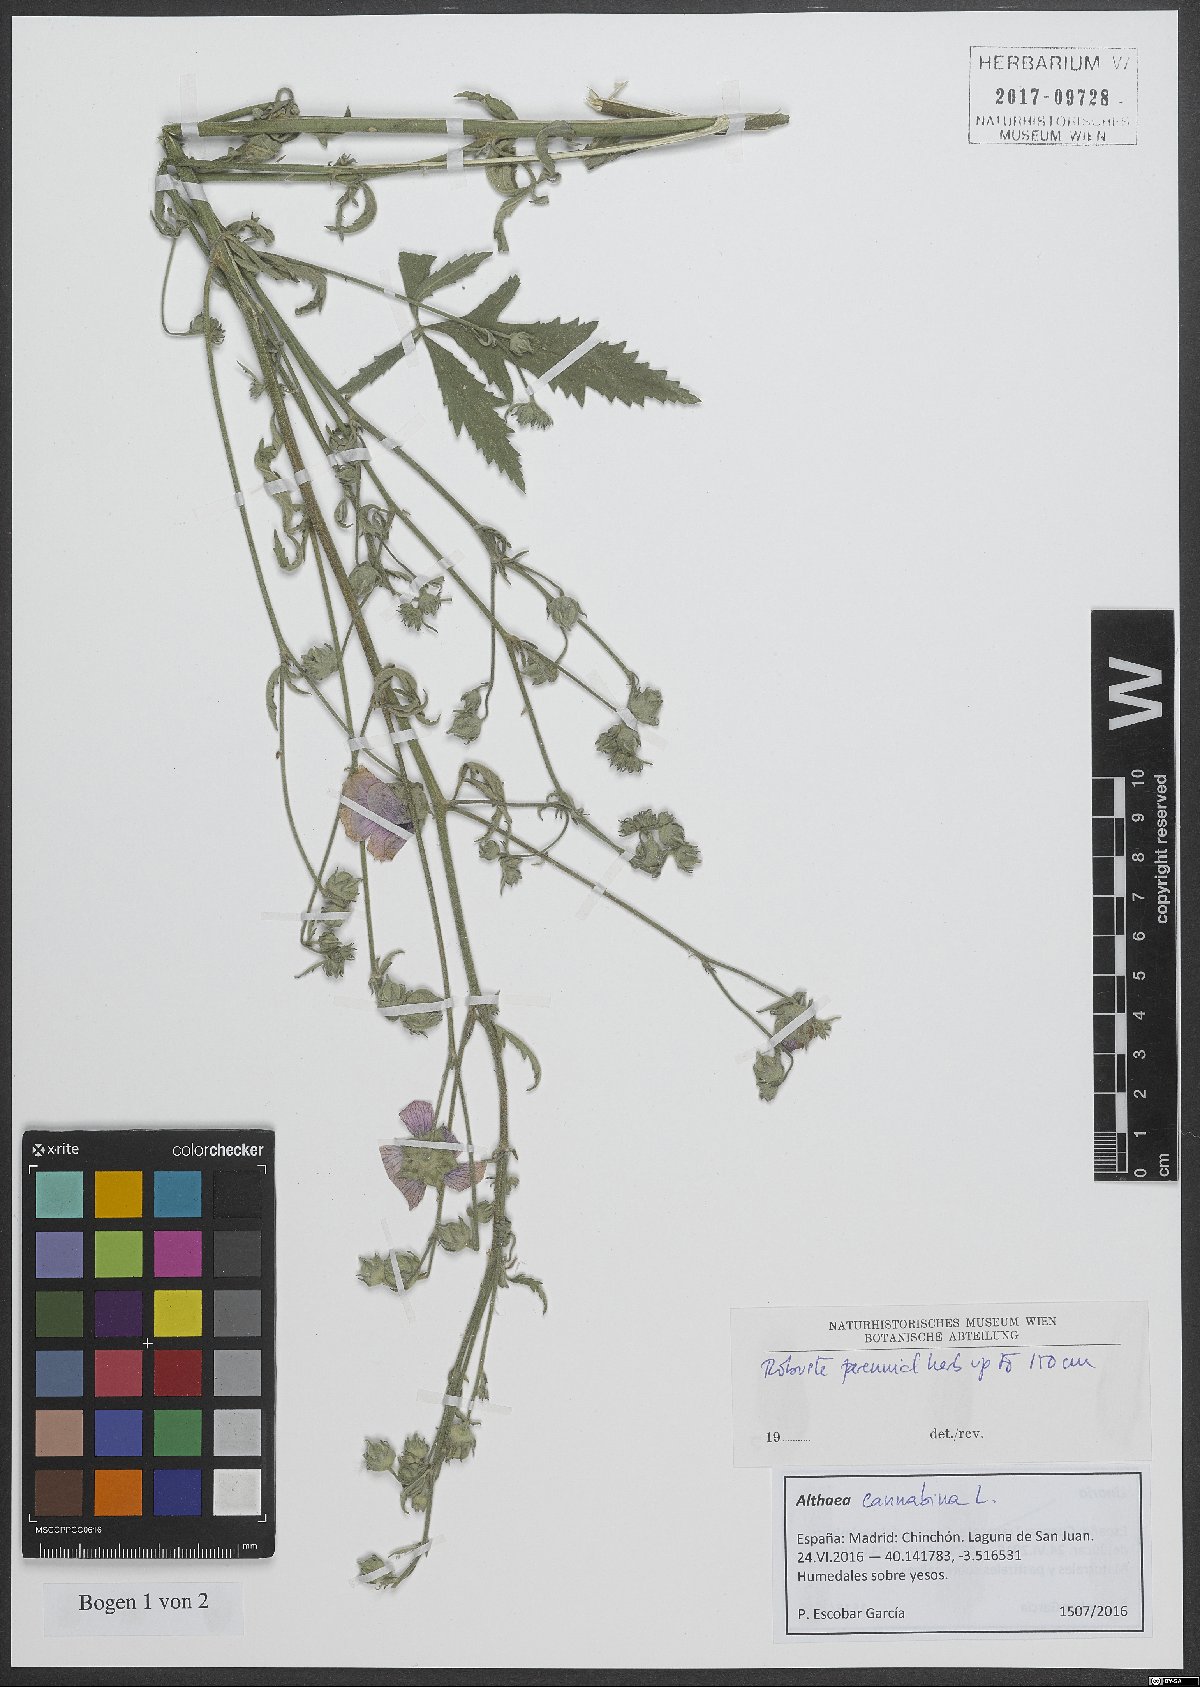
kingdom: Plantae
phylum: Tracheophyta
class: Magnoliopsida
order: Malvales
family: Malvaceae
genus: Althaea
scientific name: Althaea cannabina
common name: Palm-leaf marshmallow
